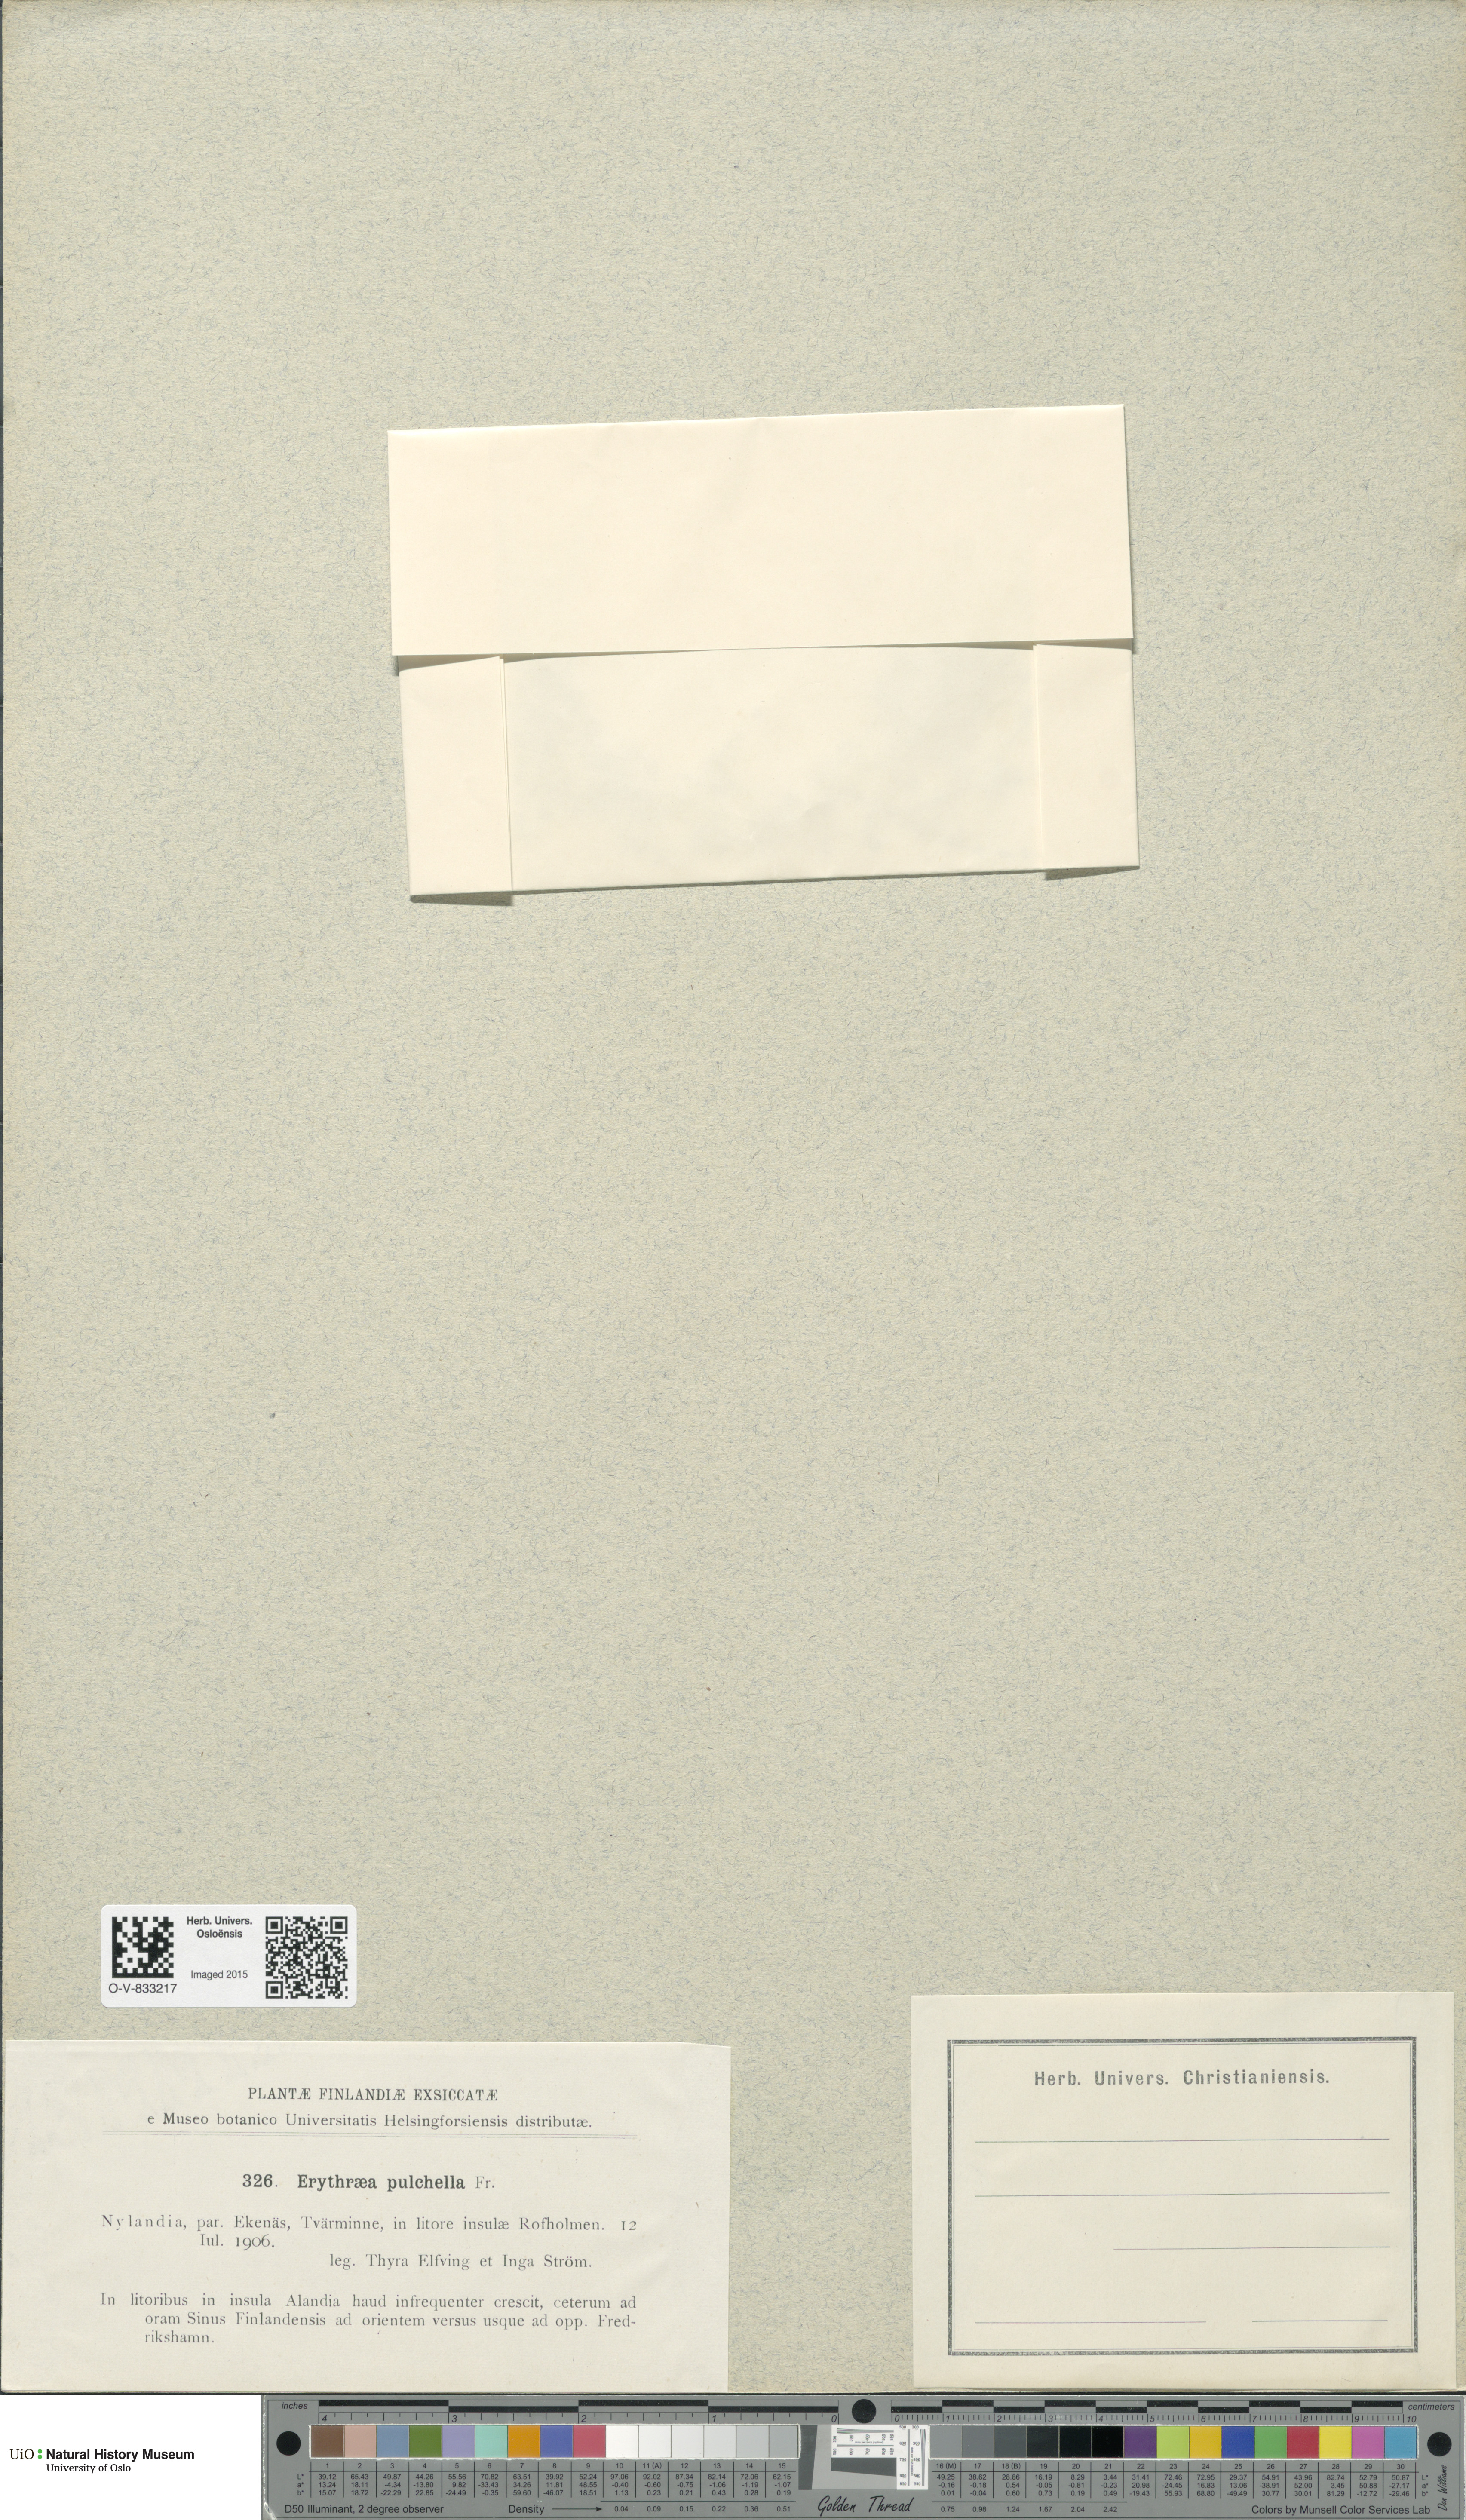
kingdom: Plantae
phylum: Tracheophyta
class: Magnoliopsida
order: Gentianales
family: Gentianaceae
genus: Centaurium
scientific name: Centaurium pulchellum
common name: Lesser centaury
